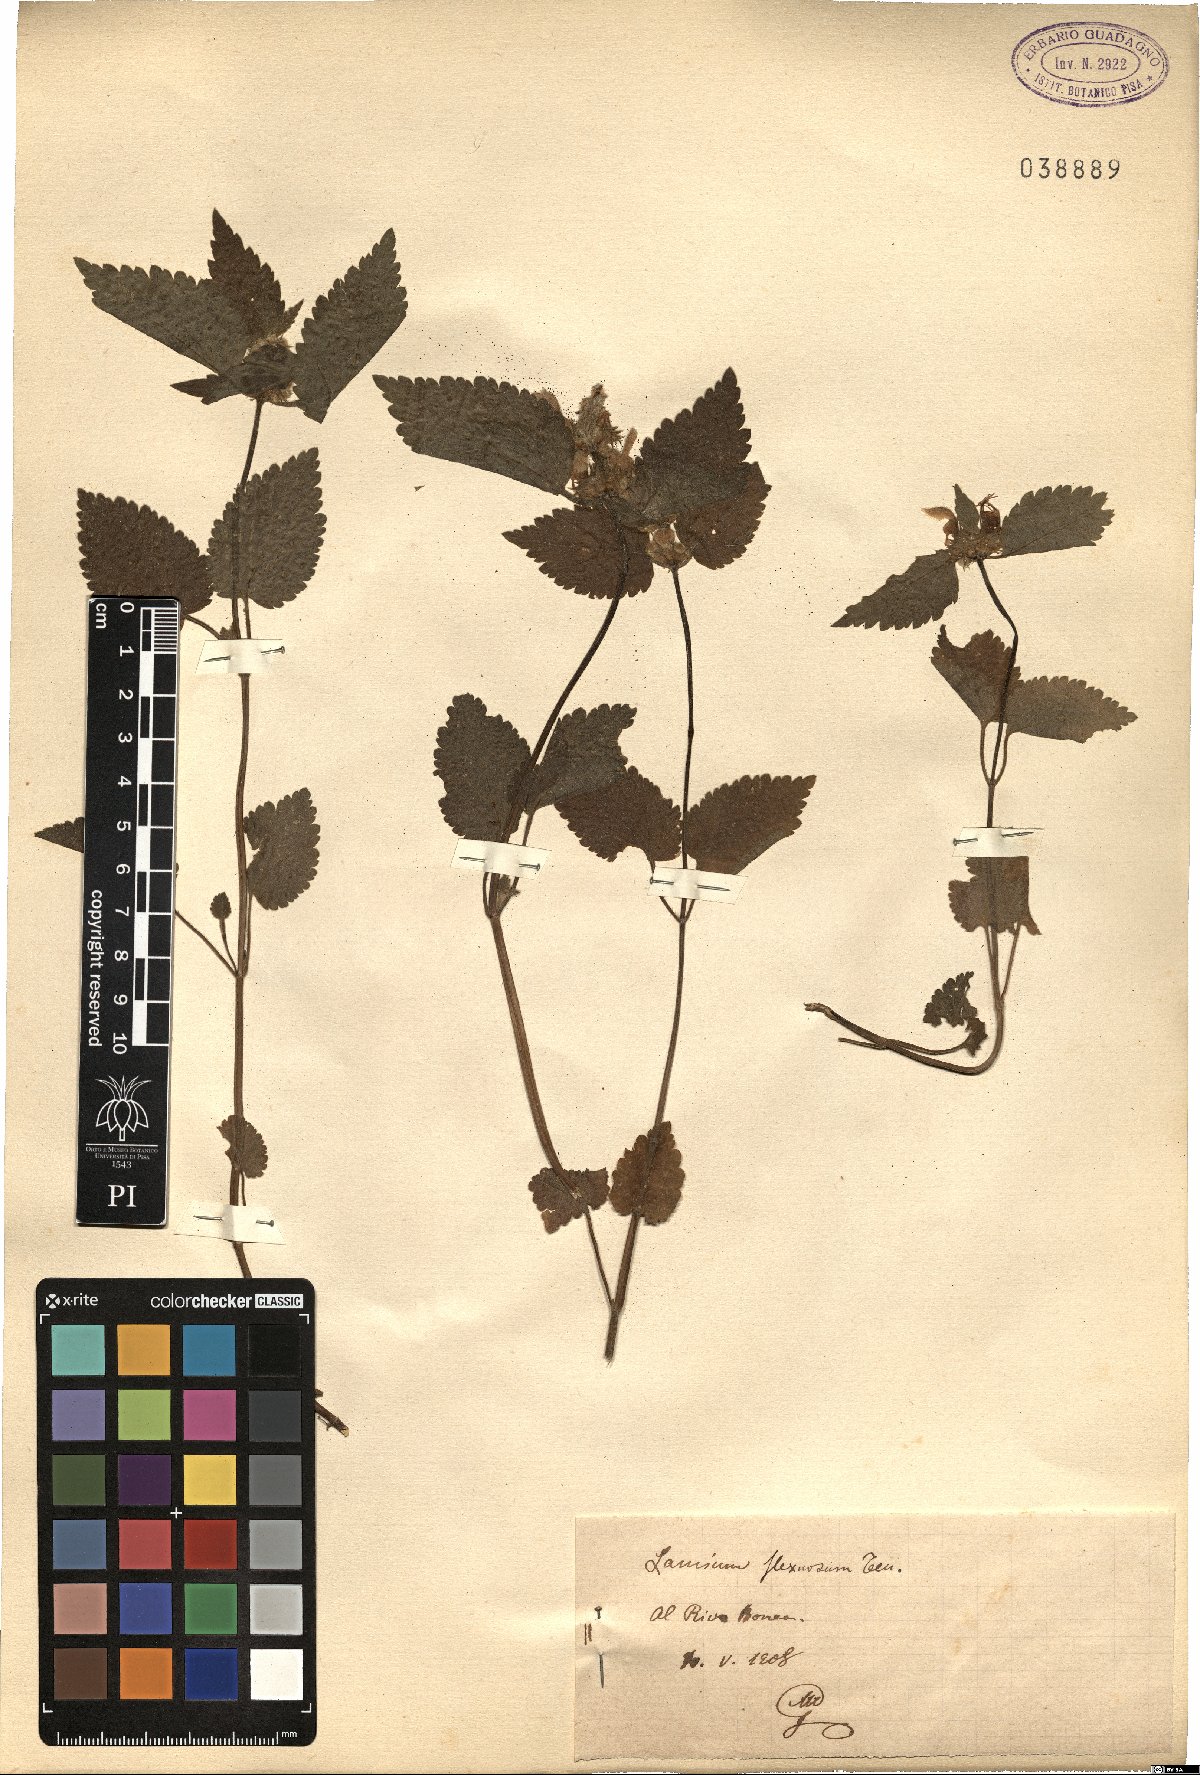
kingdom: Plantae
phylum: Tracheophyta
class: Magnoliopsida
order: Lamiales
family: Lamiaceae
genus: Lamium
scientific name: Lamium flexuosum
